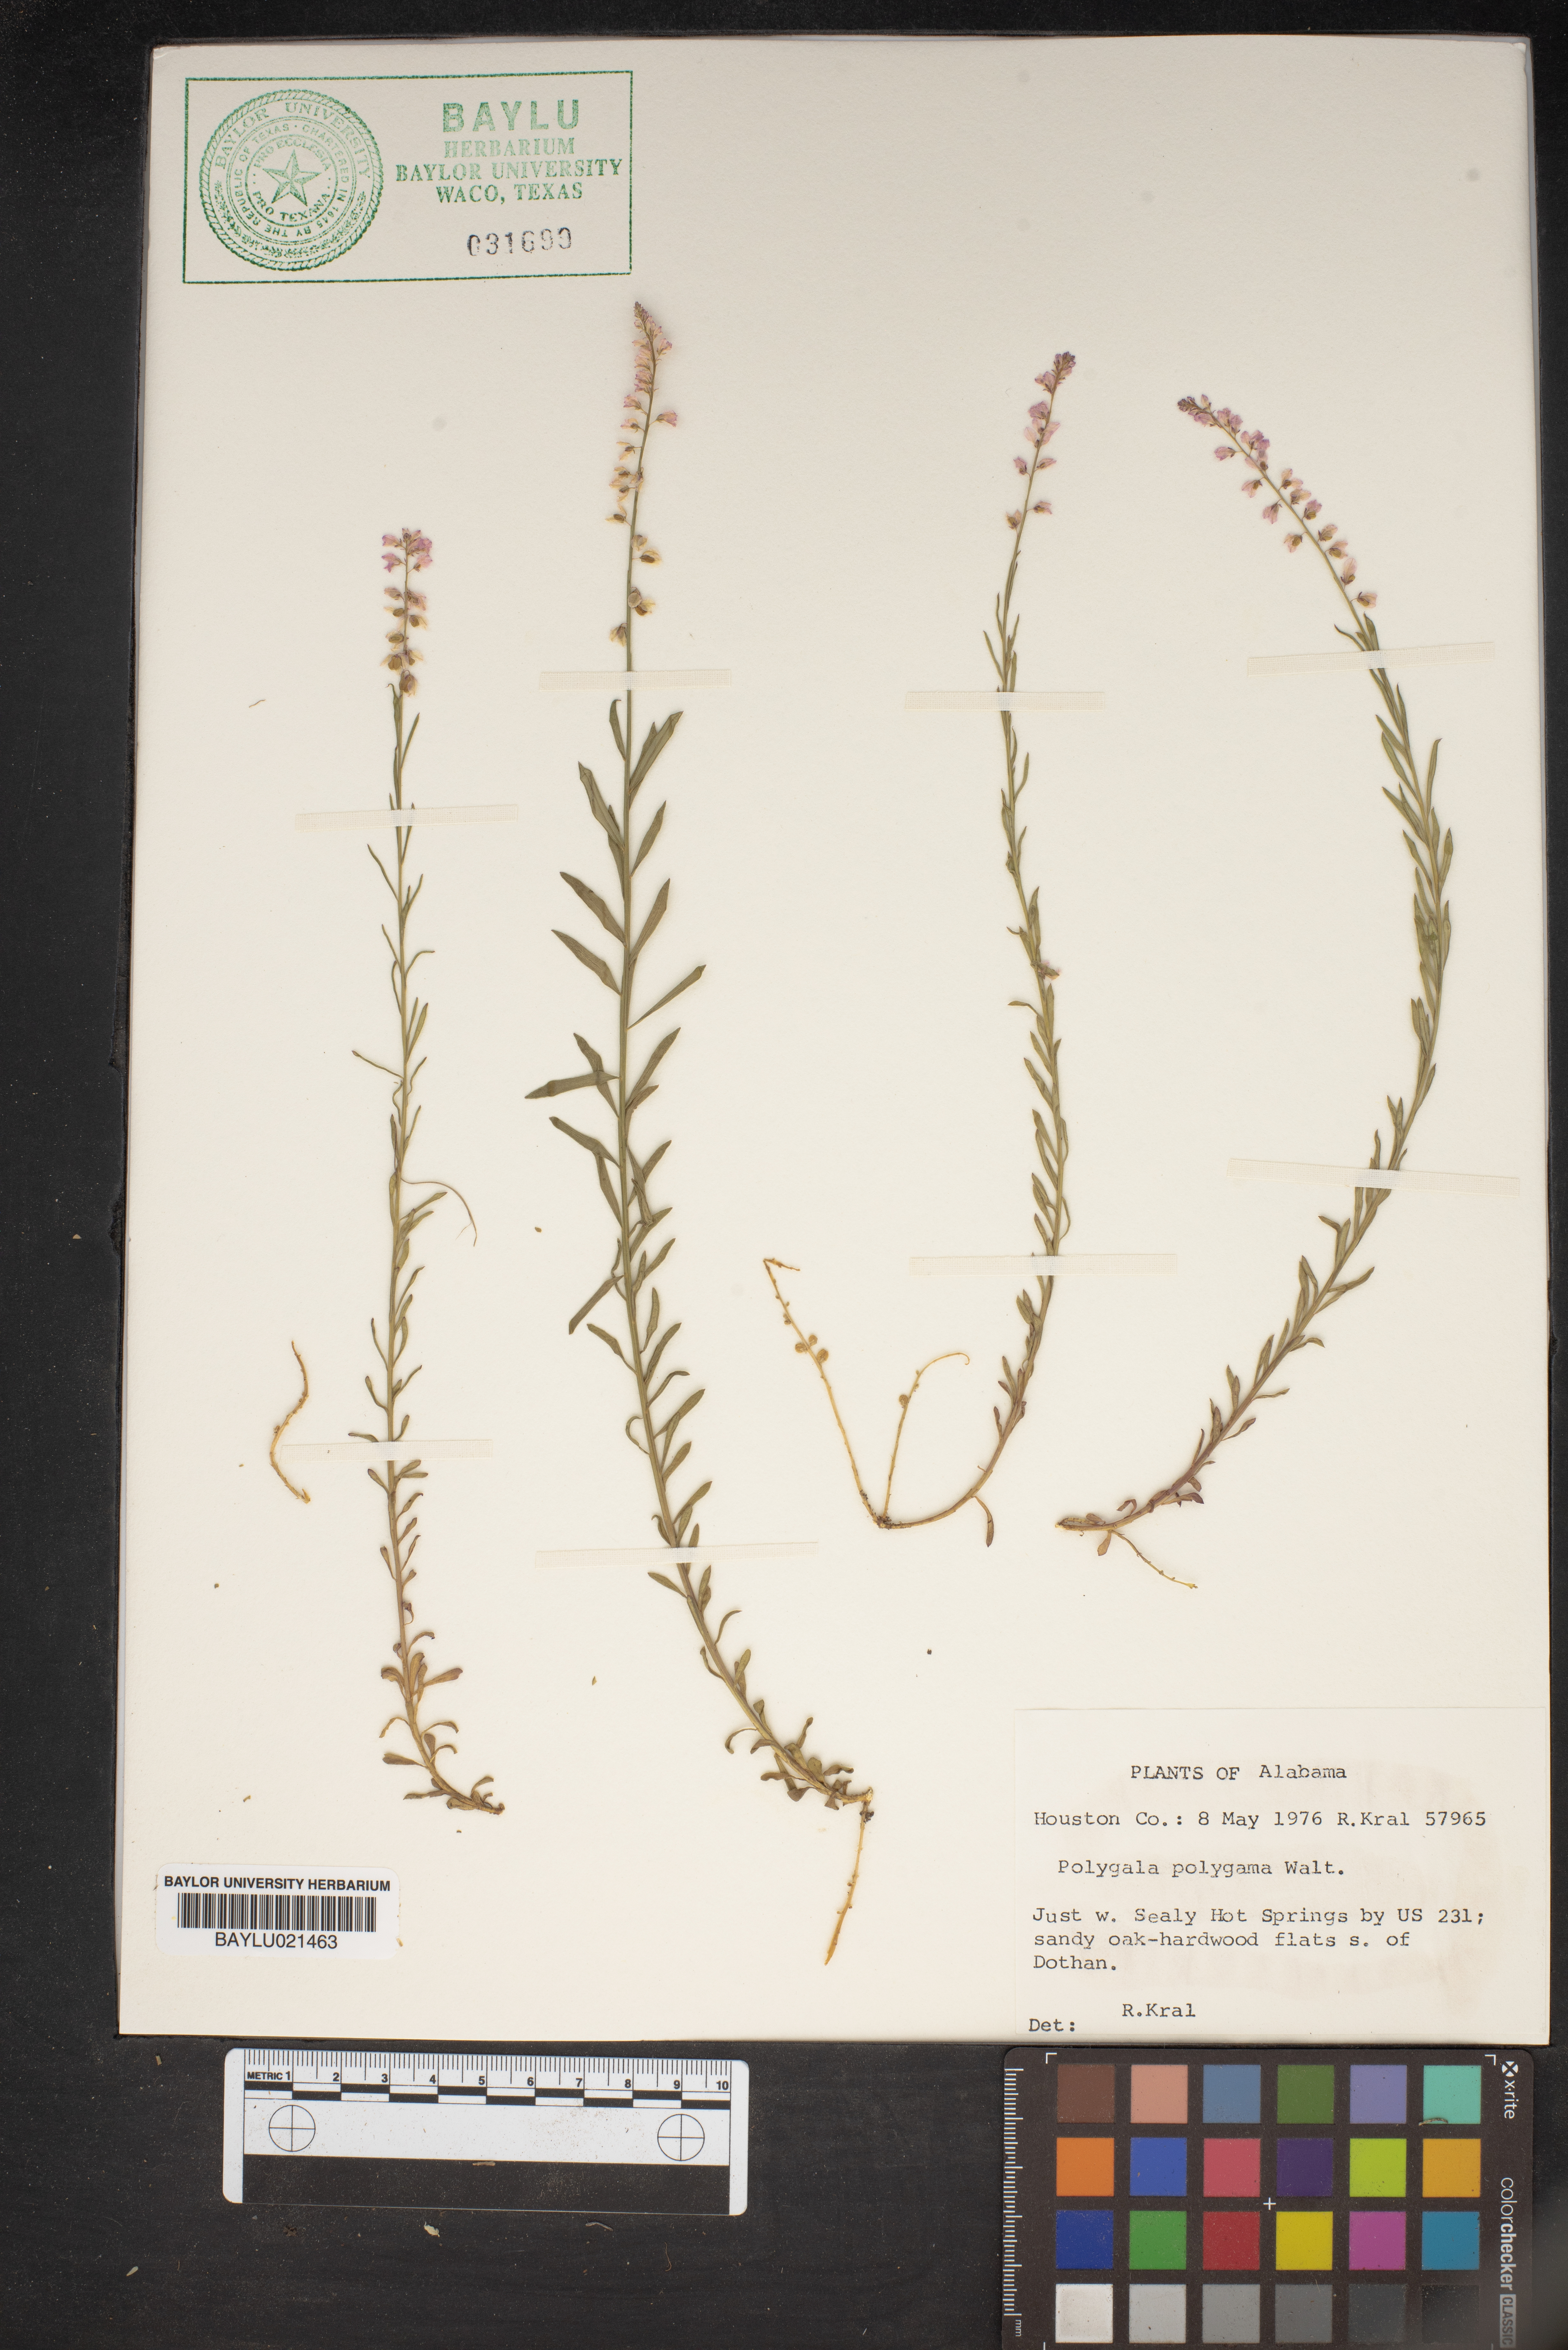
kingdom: Plantae
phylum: Tracheophyta
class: Magnoliopsida
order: Fabales
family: Polygalaceae
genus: Polygala
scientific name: Polygala polygama
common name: Bitter milkwort
